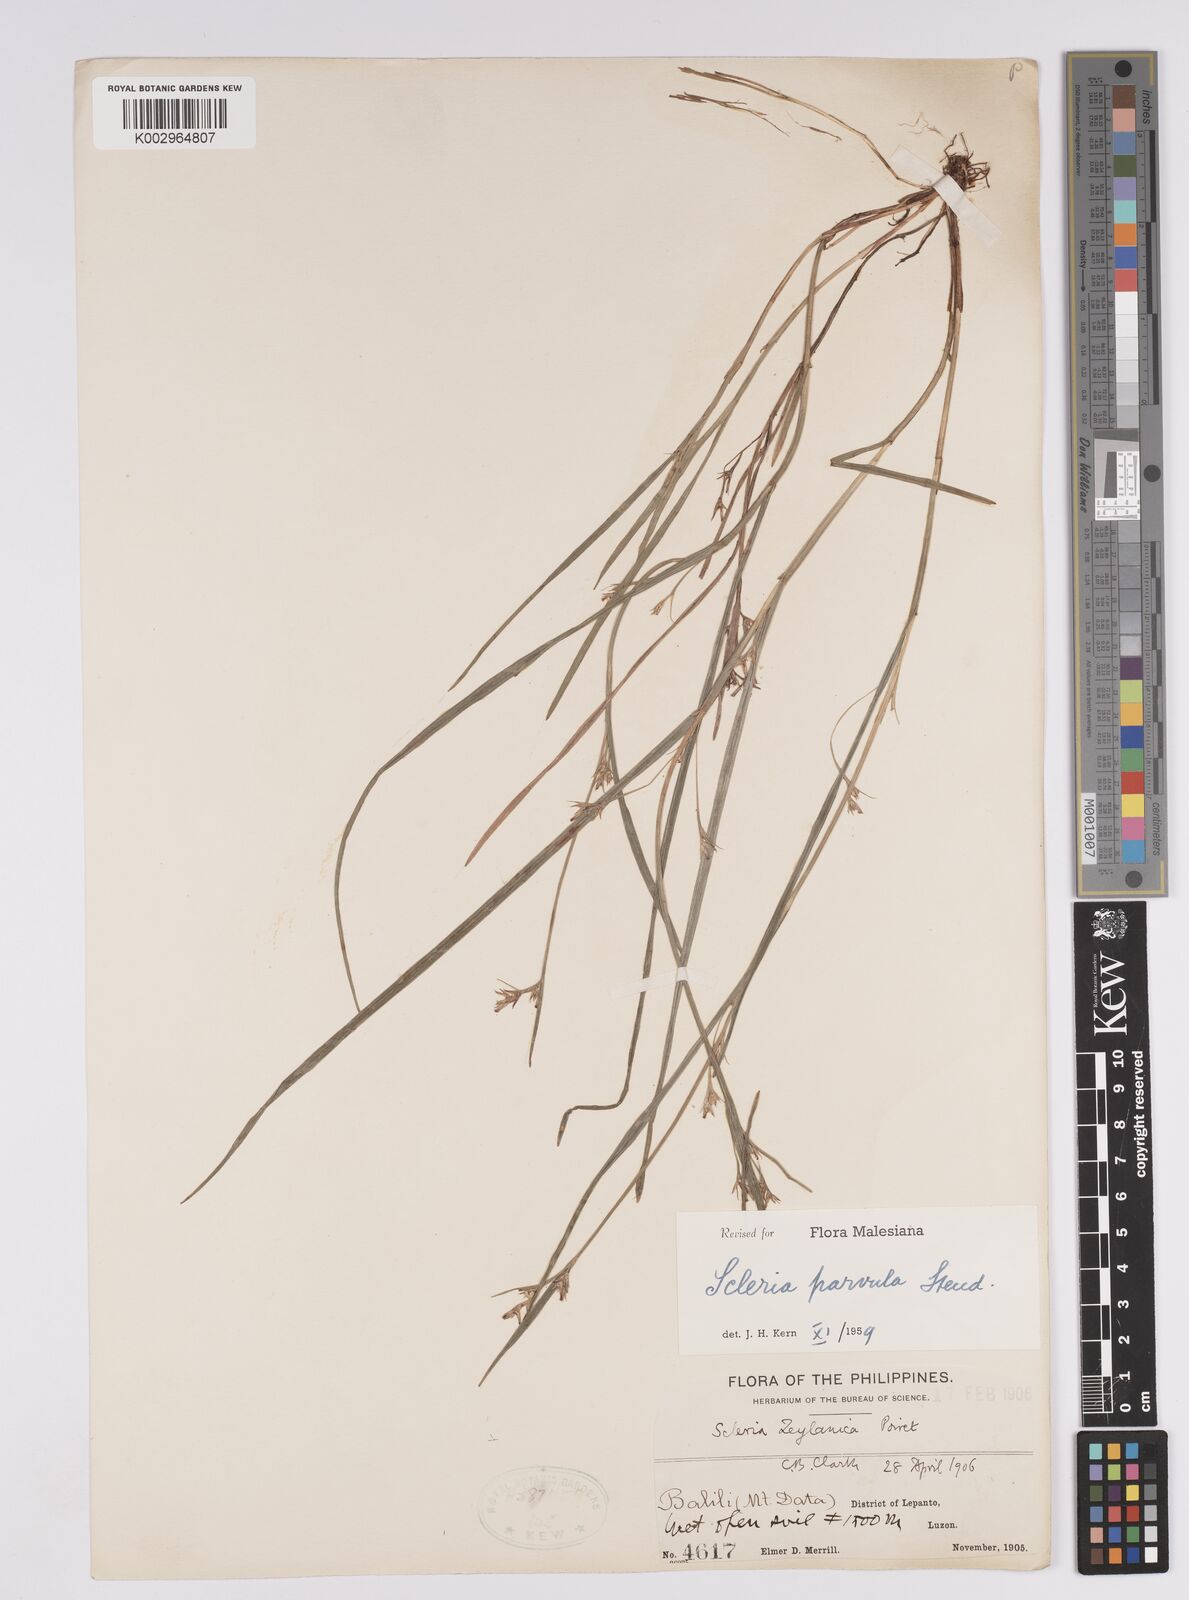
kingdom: Plantae
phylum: Tracheophyta
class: Liliopsida
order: Poales
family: Cyperaceae
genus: Scleria
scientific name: Scleria parvula
